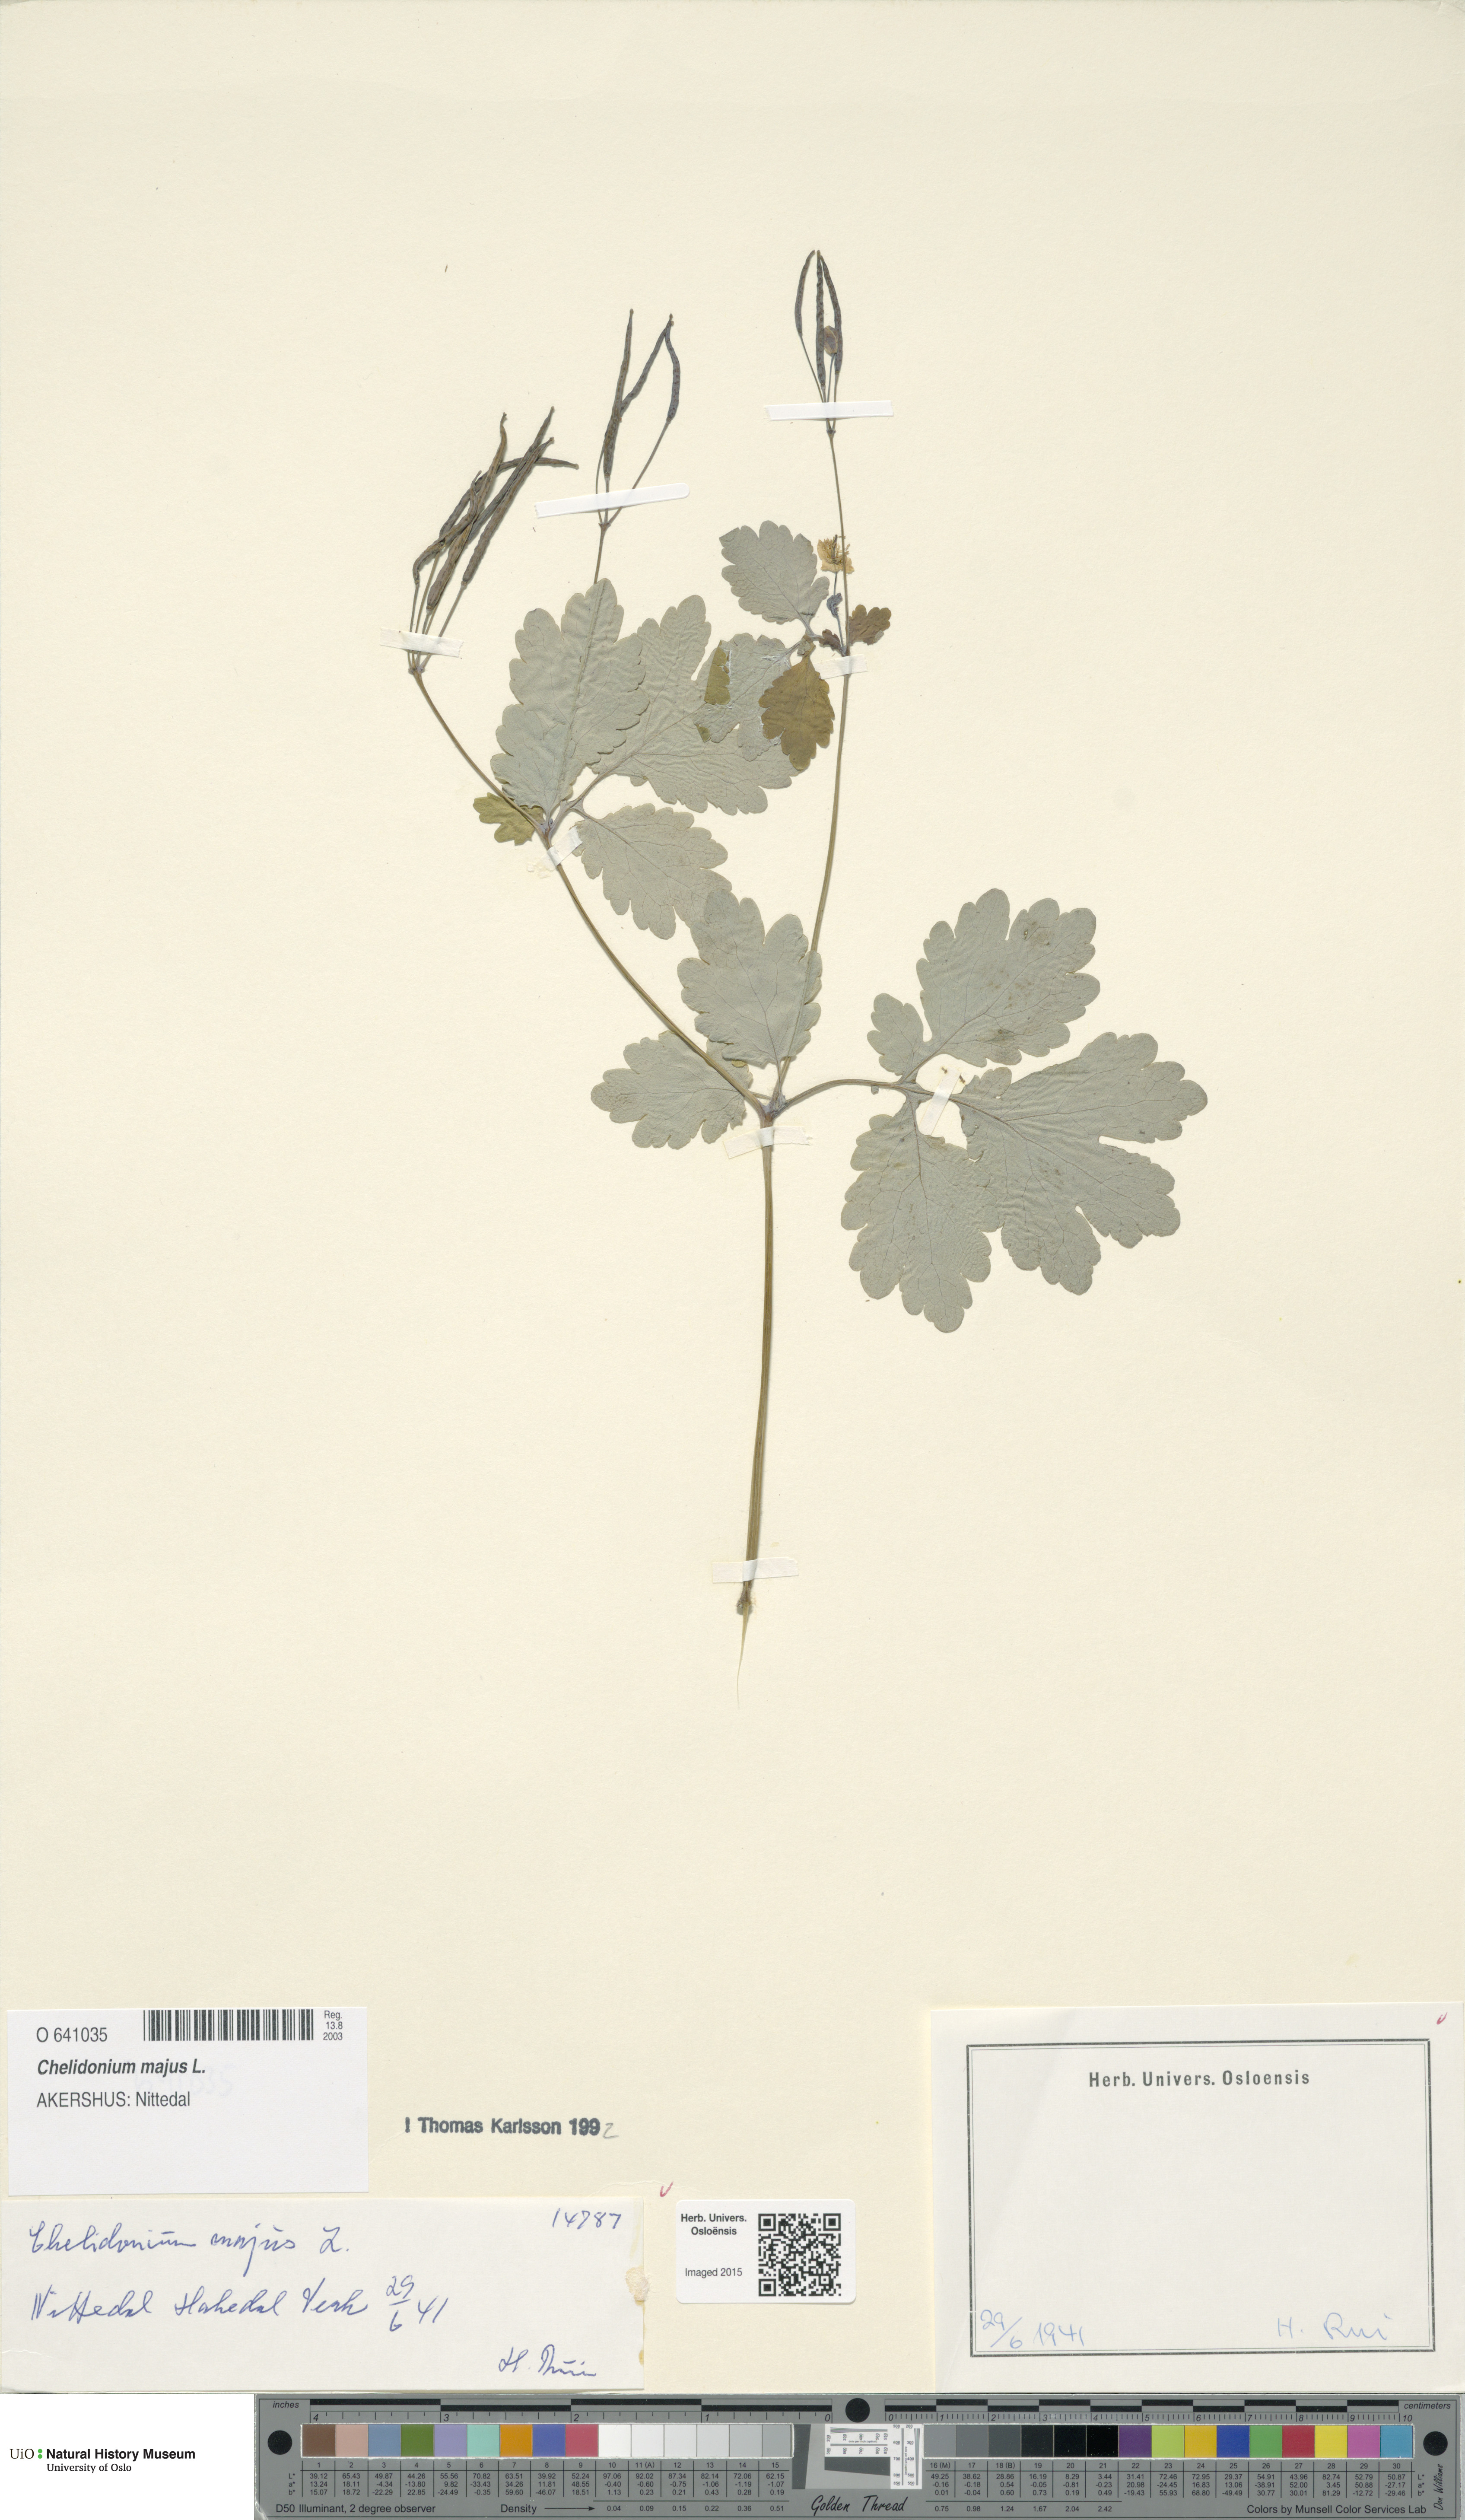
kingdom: Plantae
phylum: Tracheophyta
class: Magnoliopsida
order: Ranunculales
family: Papaveraceae
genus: Chelidonium
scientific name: Chelidonium majus
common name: Greater celandine
